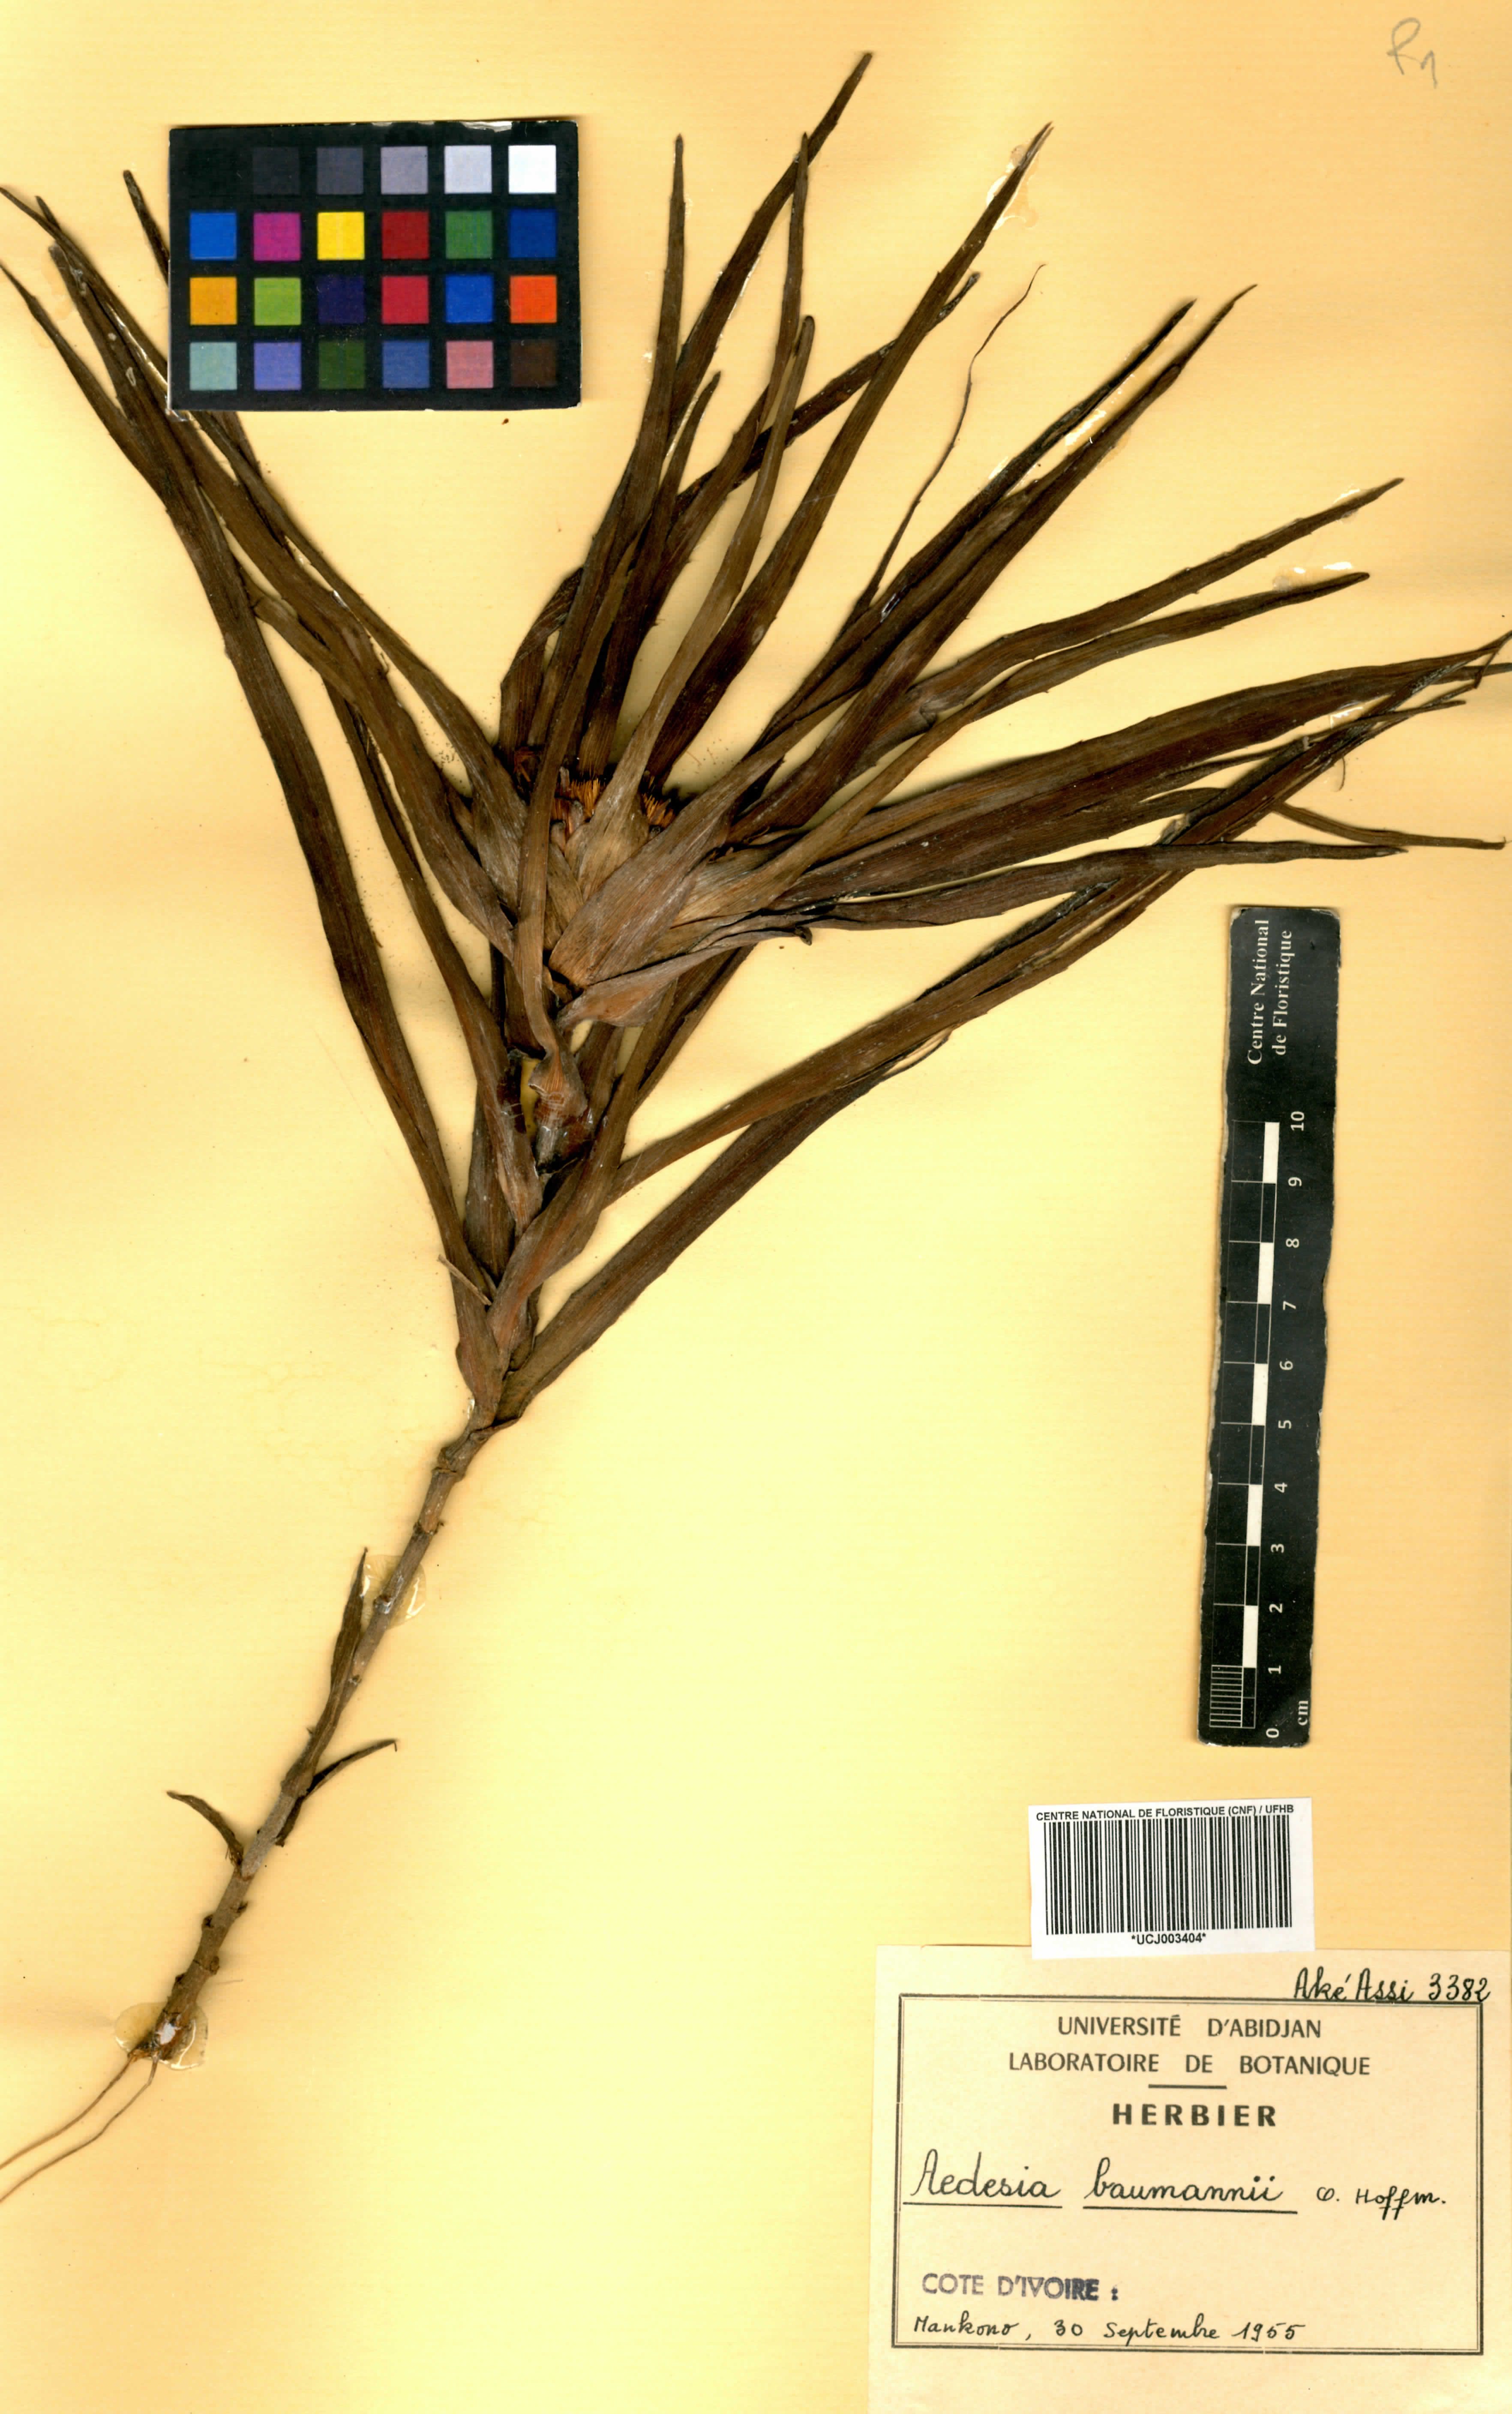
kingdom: Plantae
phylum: Tracheophyta
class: Magnoliopsida
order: Asterales
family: Asteraceae
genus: Aedesia
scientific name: Aedesia glabra
